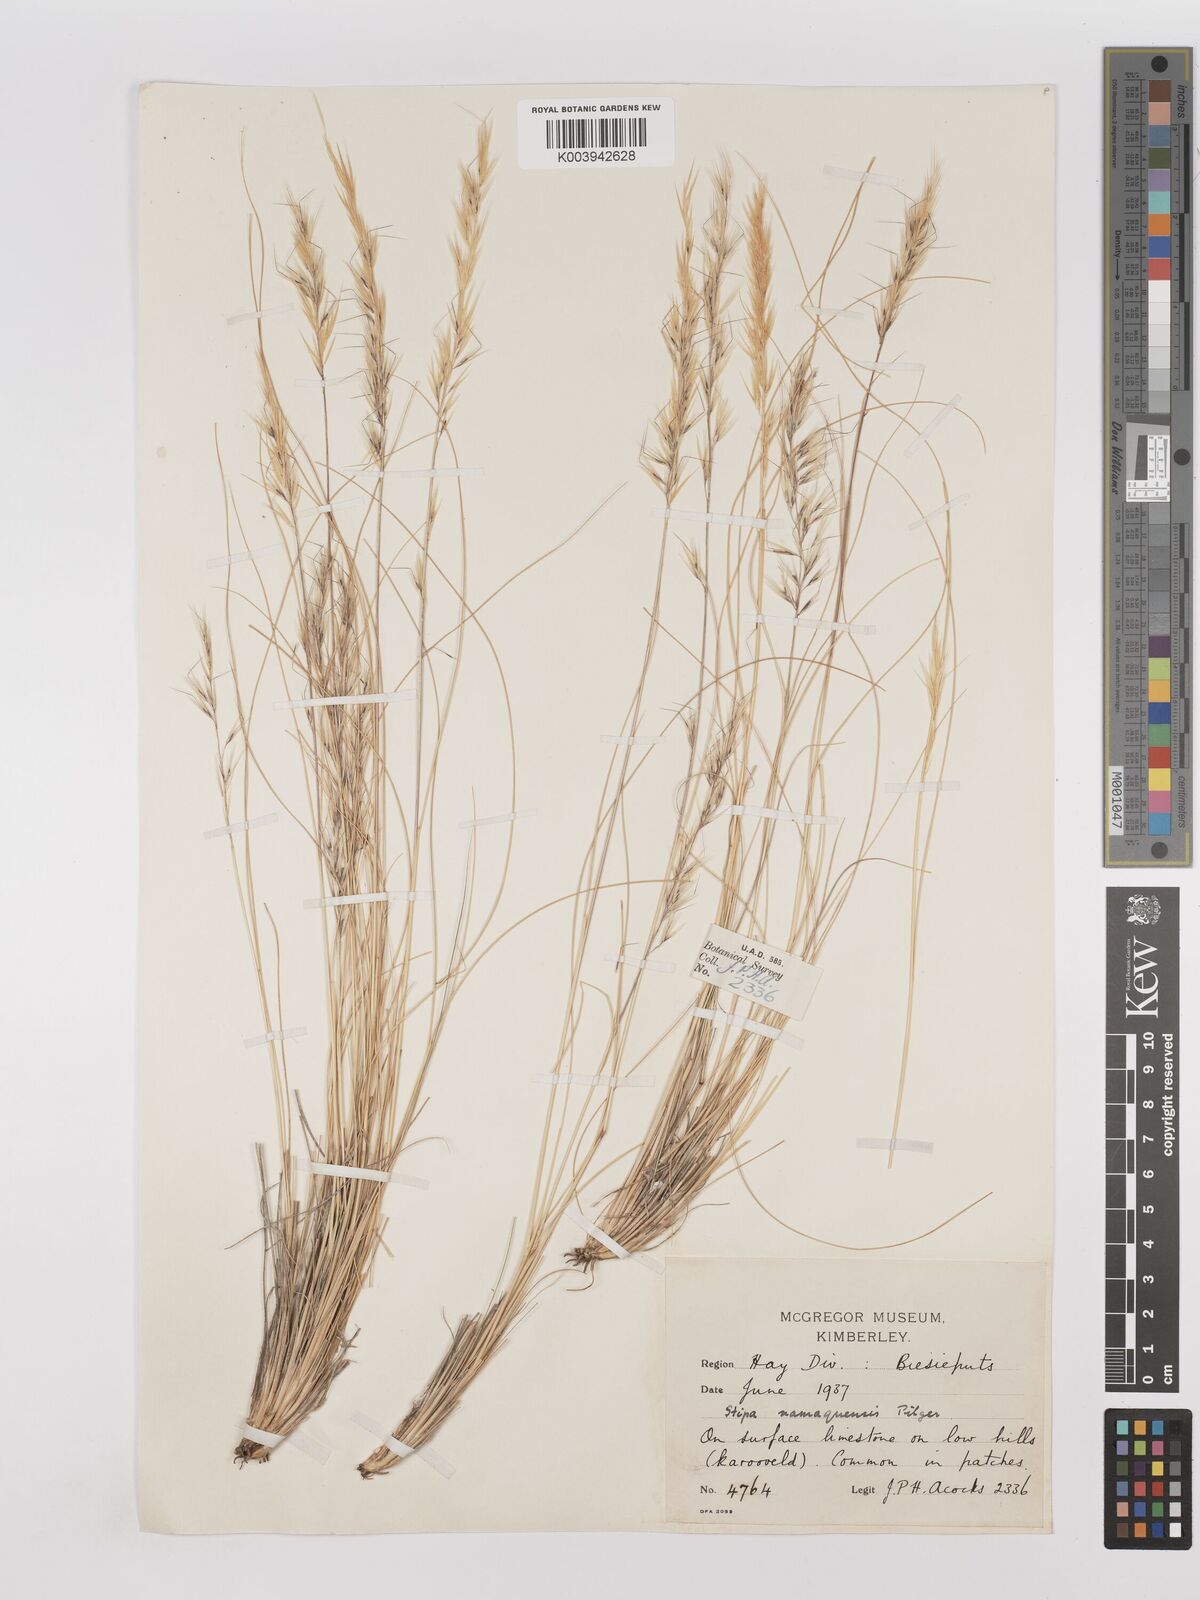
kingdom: Plantae
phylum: Tracheophyta
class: Liliopsida
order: Poales
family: Poaceae
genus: Stipagrostis
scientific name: Stipagrostis anomala
